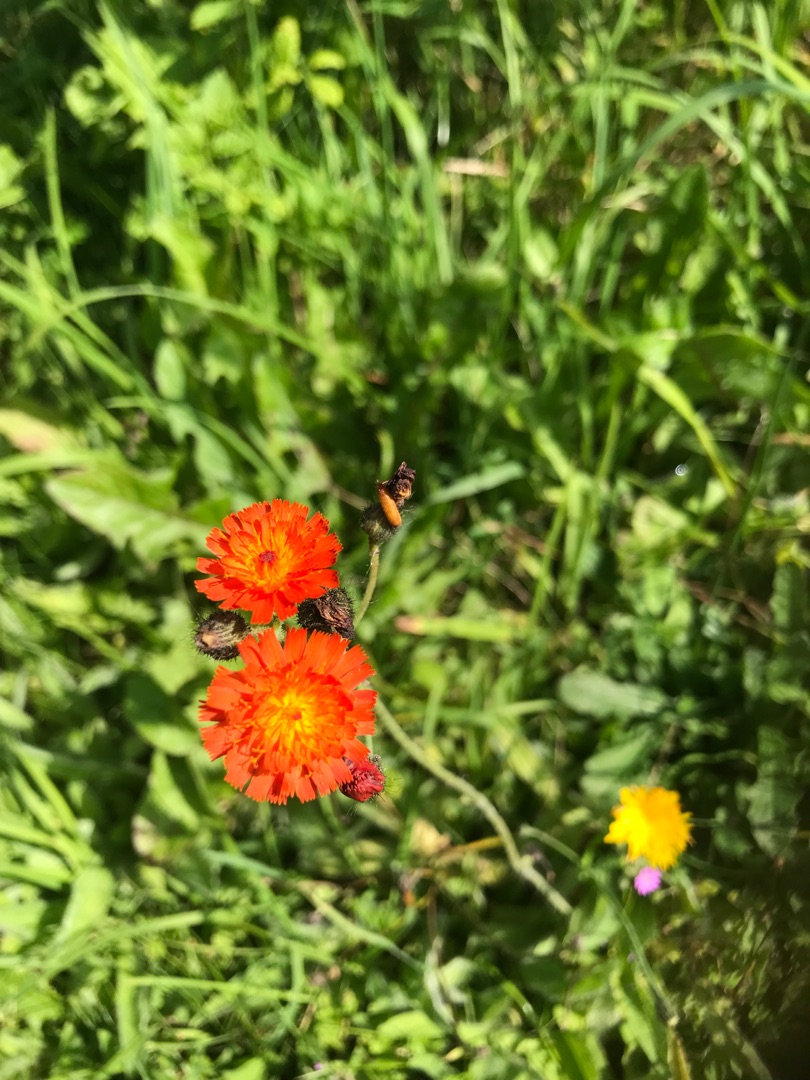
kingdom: Plantae
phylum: Tracheophyta
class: Magnoliopsida
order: Asterales
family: Asteraceae
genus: Pilosella
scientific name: Pilosella aurantiaca
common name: Pomerans-høgeurt
